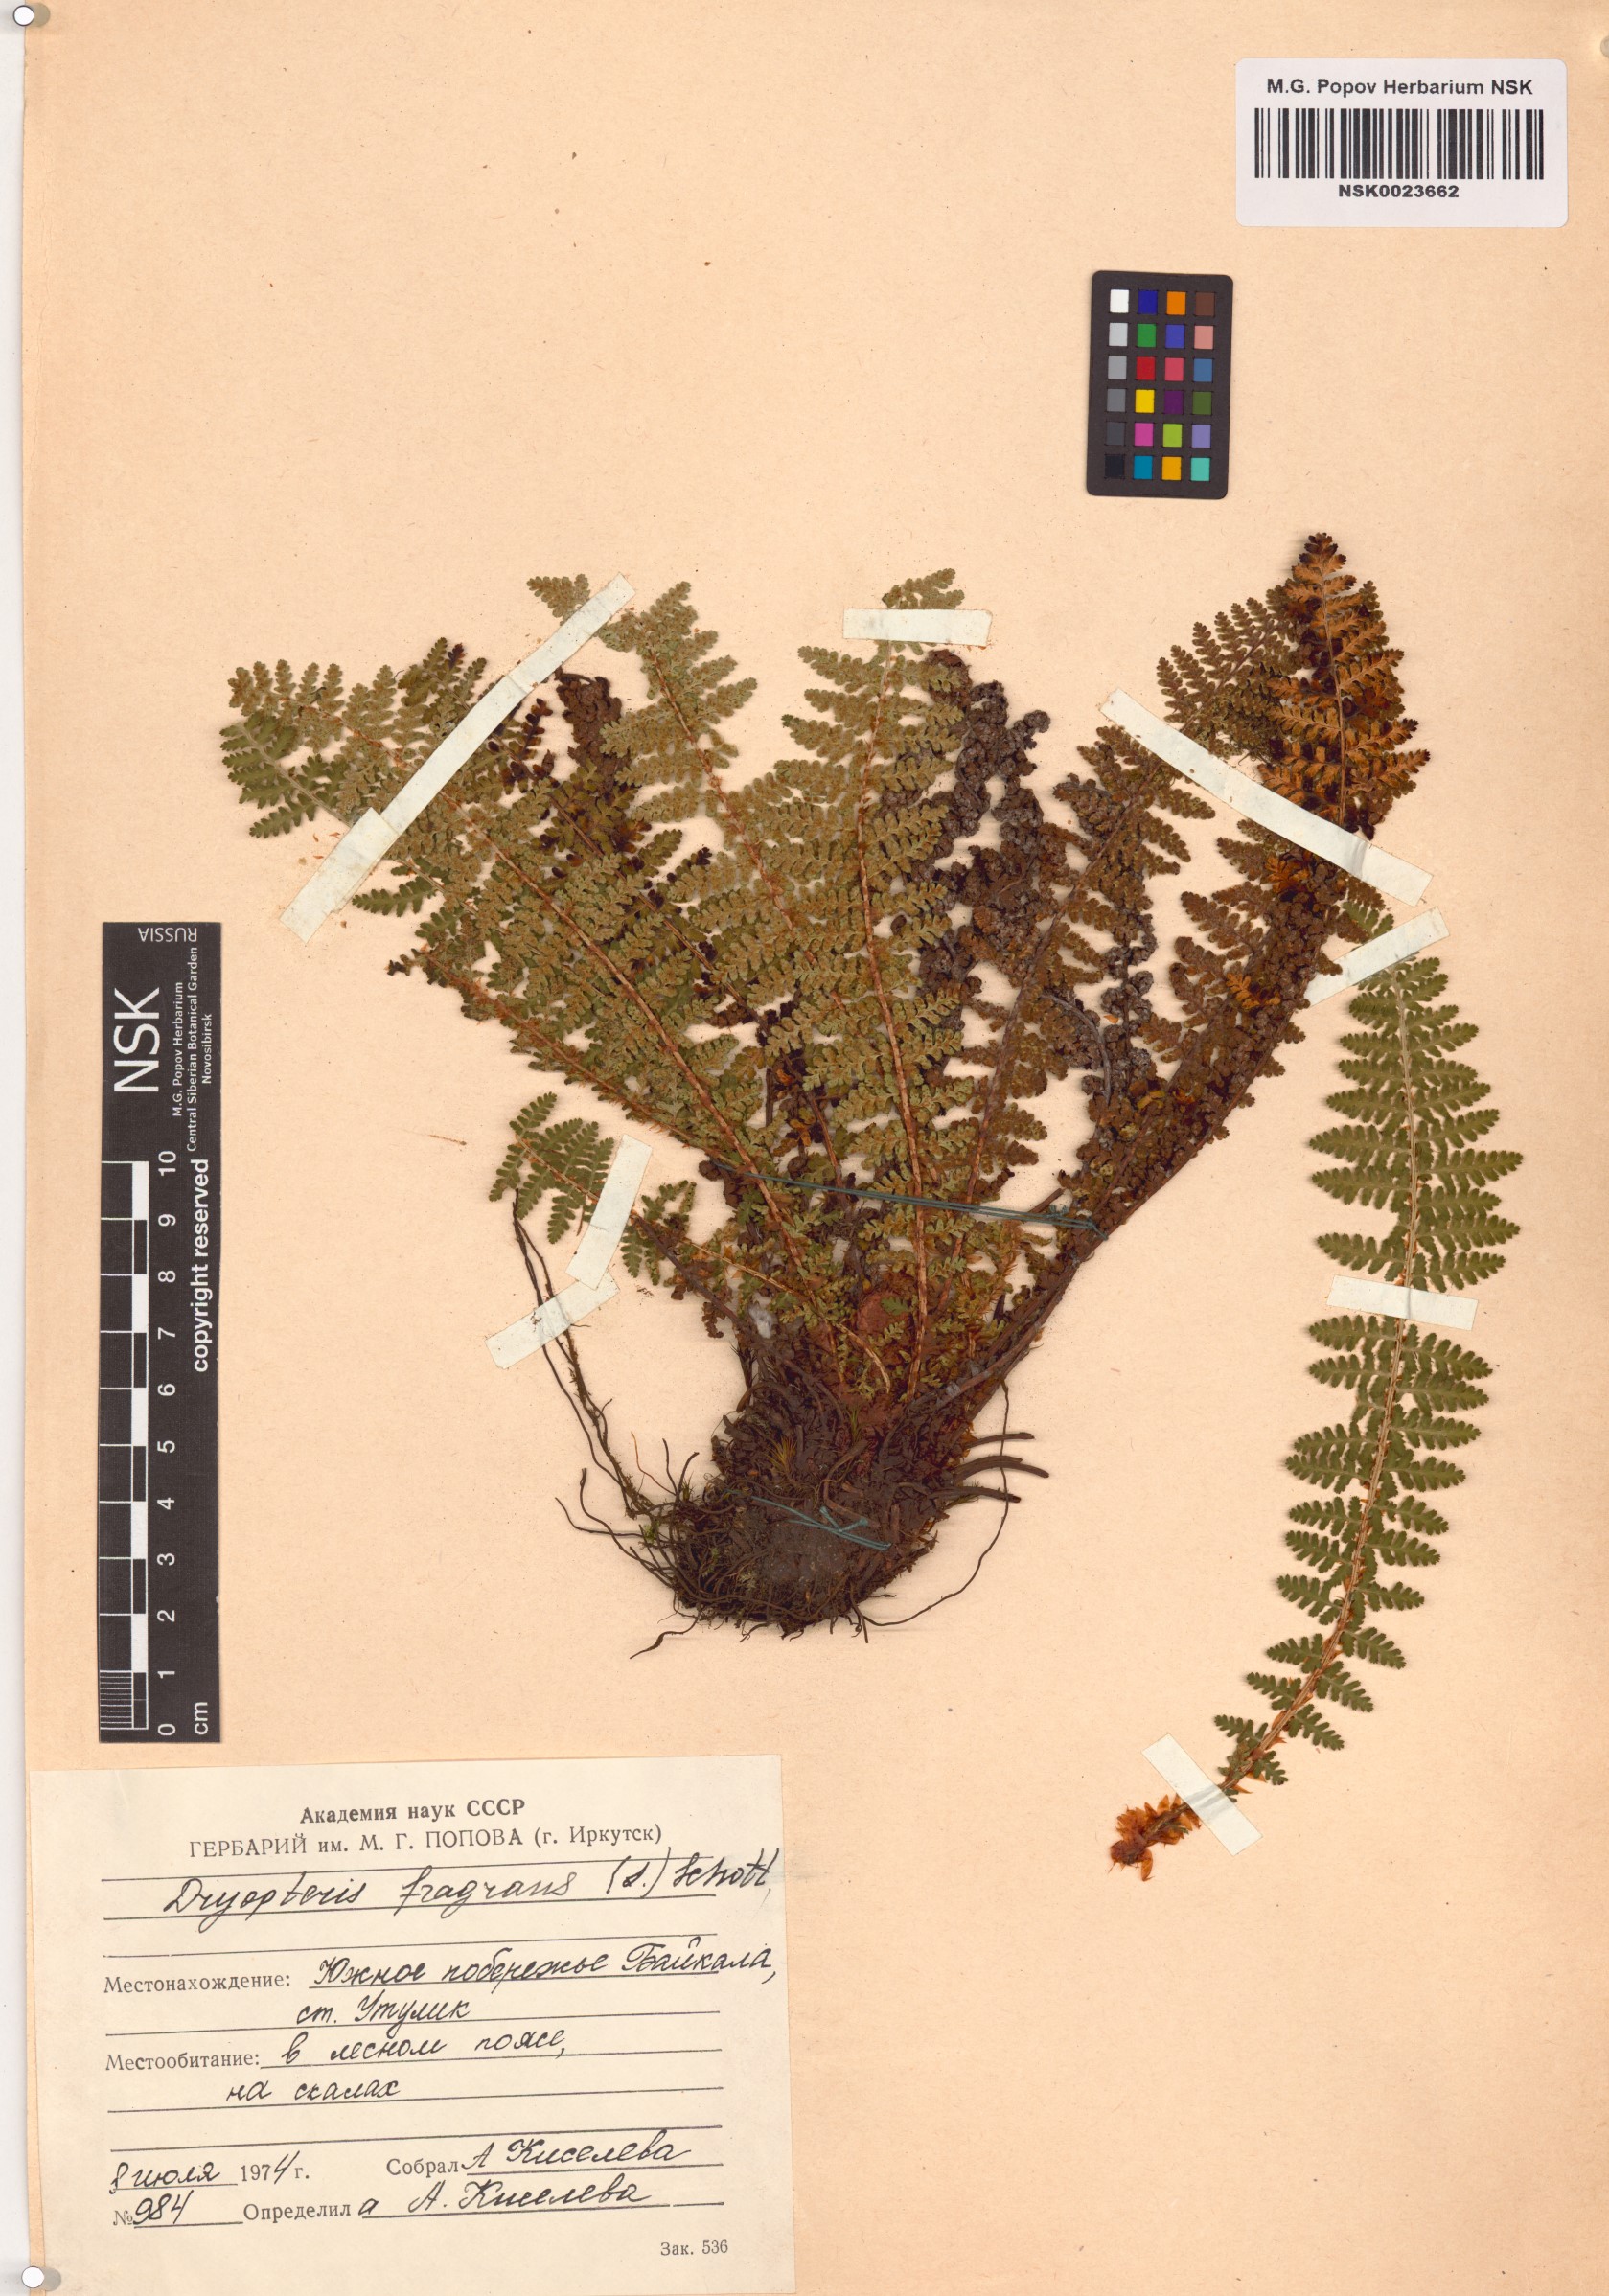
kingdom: Plantae
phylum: Tracheophyta
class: Polypodiopsida
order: Polypodiales
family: Dryopteridaceae
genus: Dryopteris
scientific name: Dryopteris fragrans
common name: Fragrant wood fern
